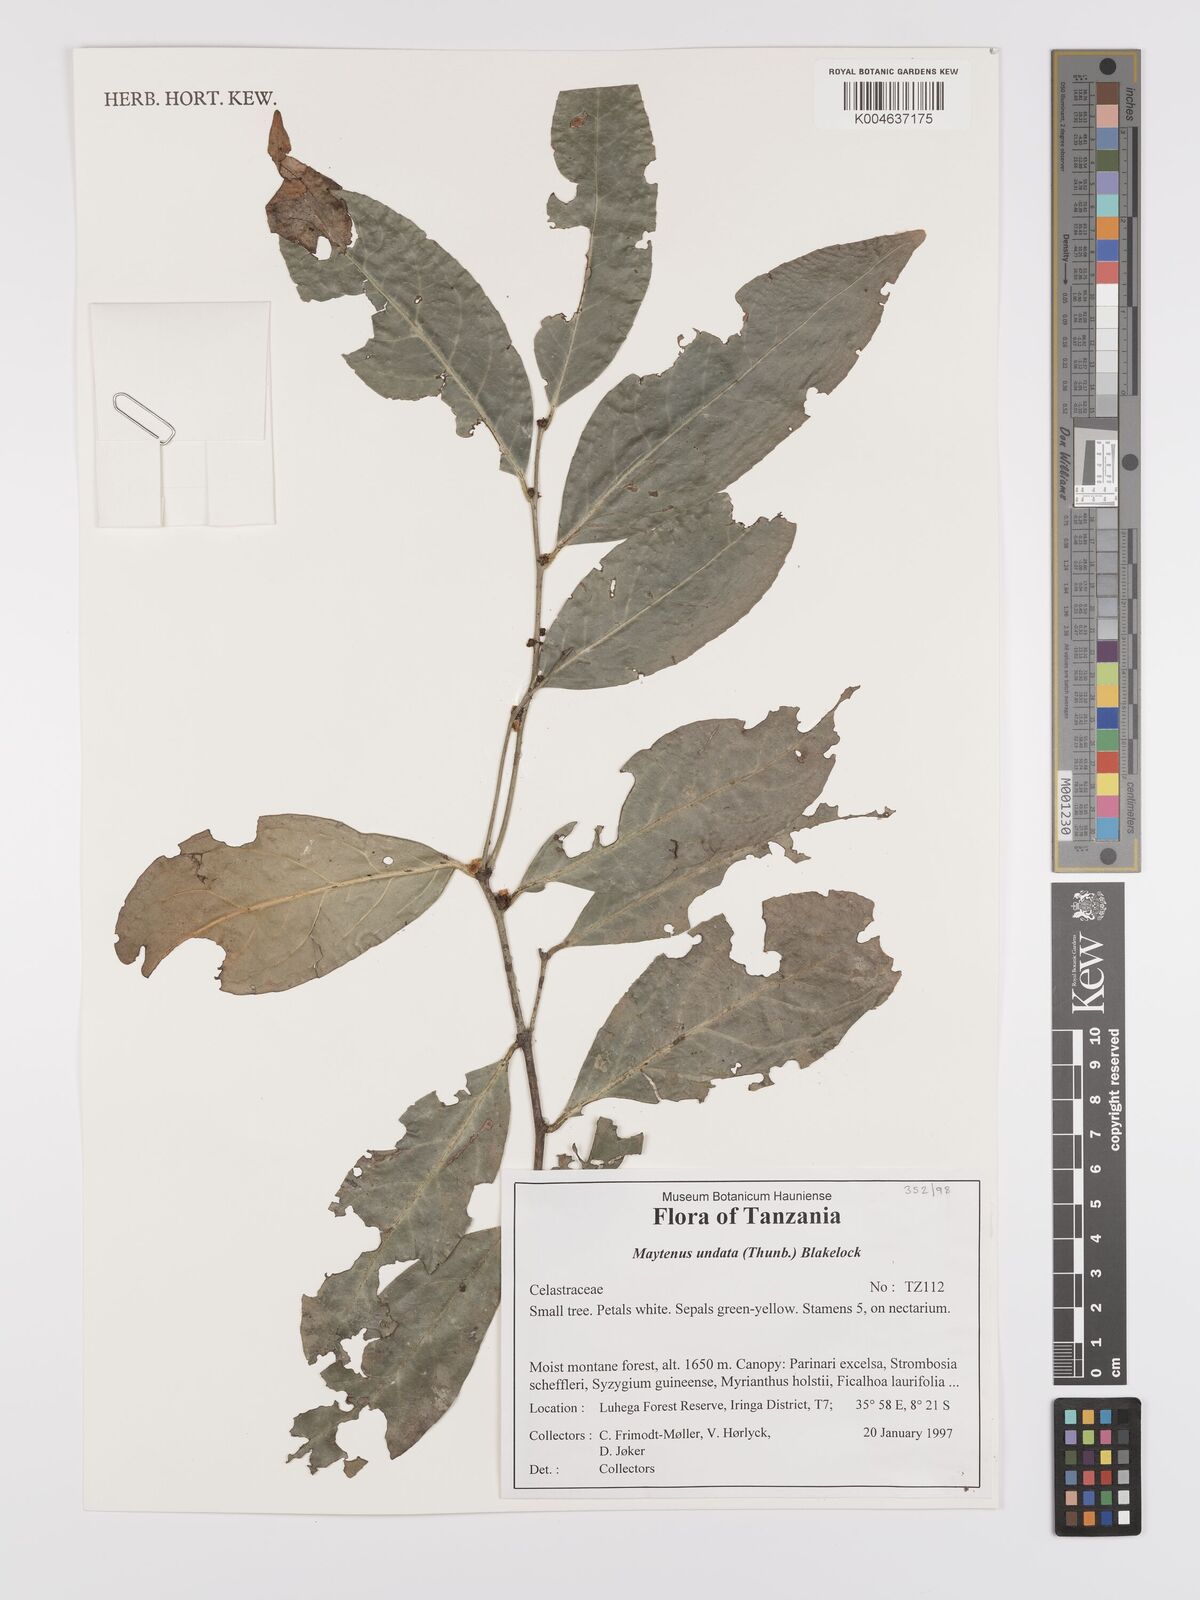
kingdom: Plantae
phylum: Tracheophyta
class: Magnoliopsida
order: Celastrales
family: Celastraceae
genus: Gymnosporia
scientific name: Gymnosporia undata
